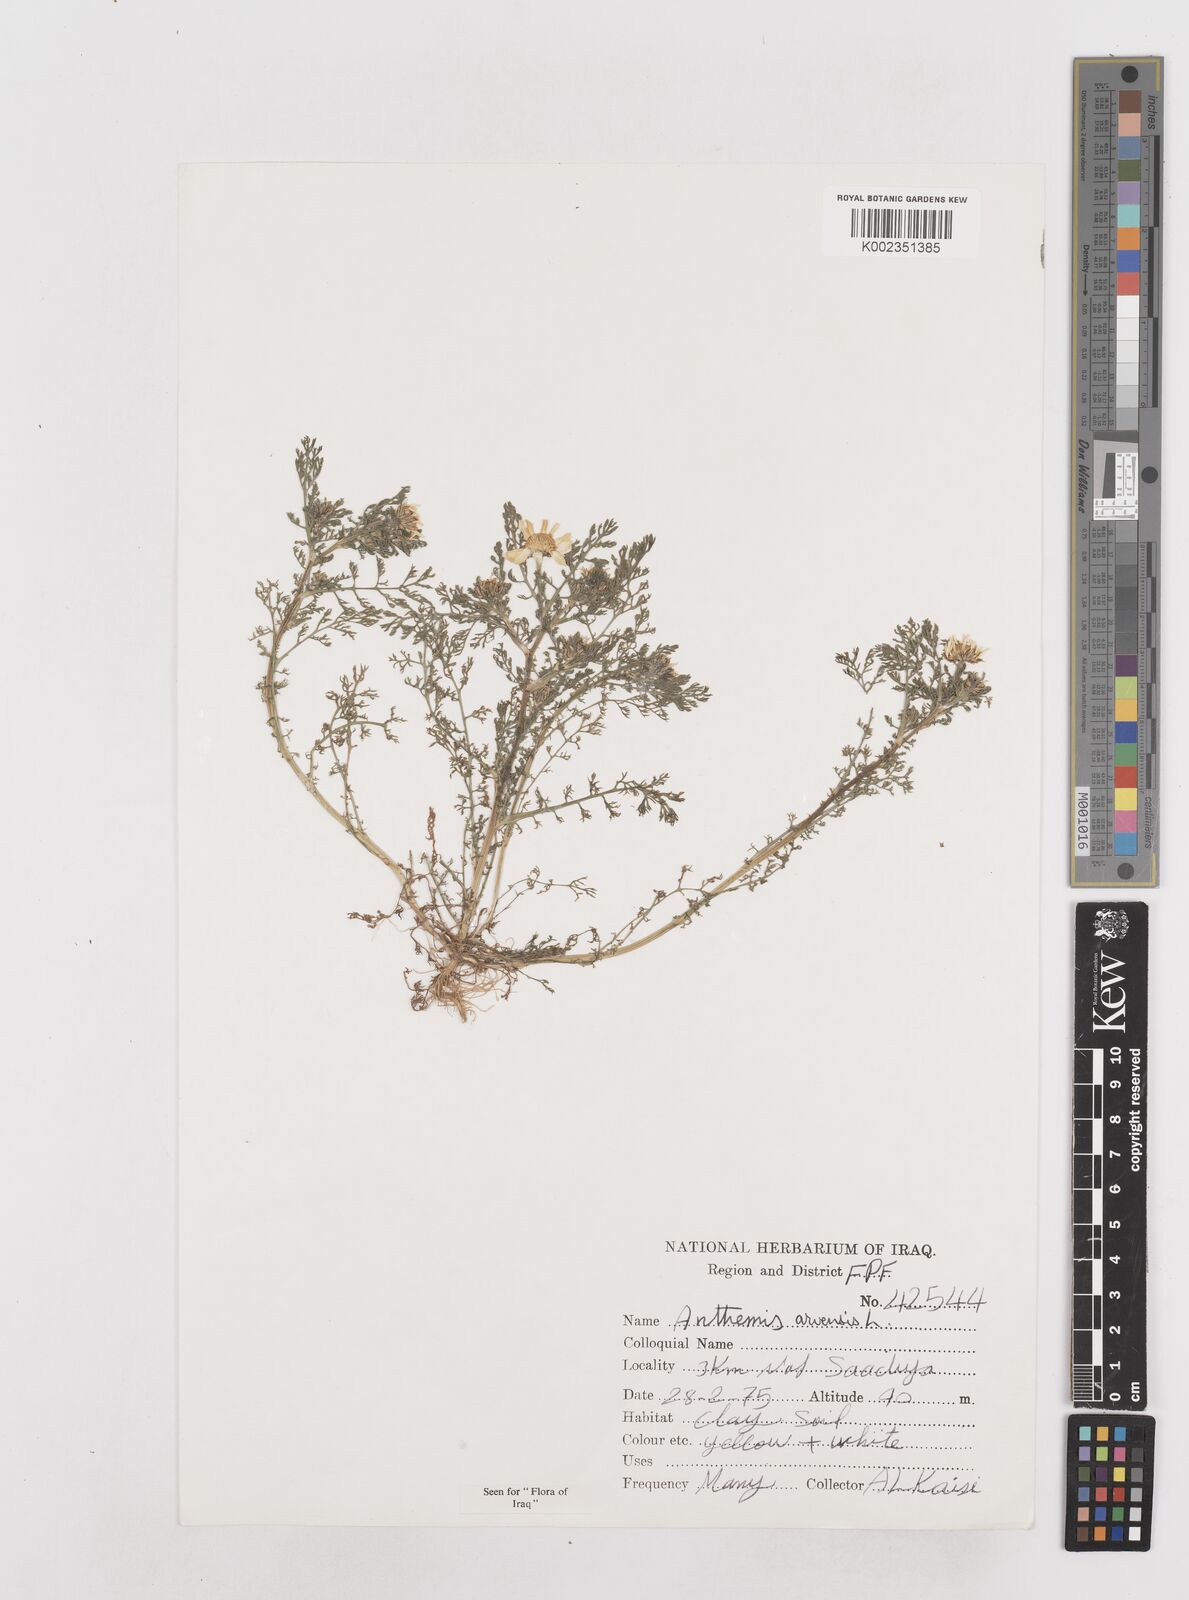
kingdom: Plantae
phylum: Tracheophyta
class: Magnoliopsida
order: Asterales
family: Asteraceae
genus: Anthemis
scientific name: Anthemis arvensis
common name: Corn chamomile
